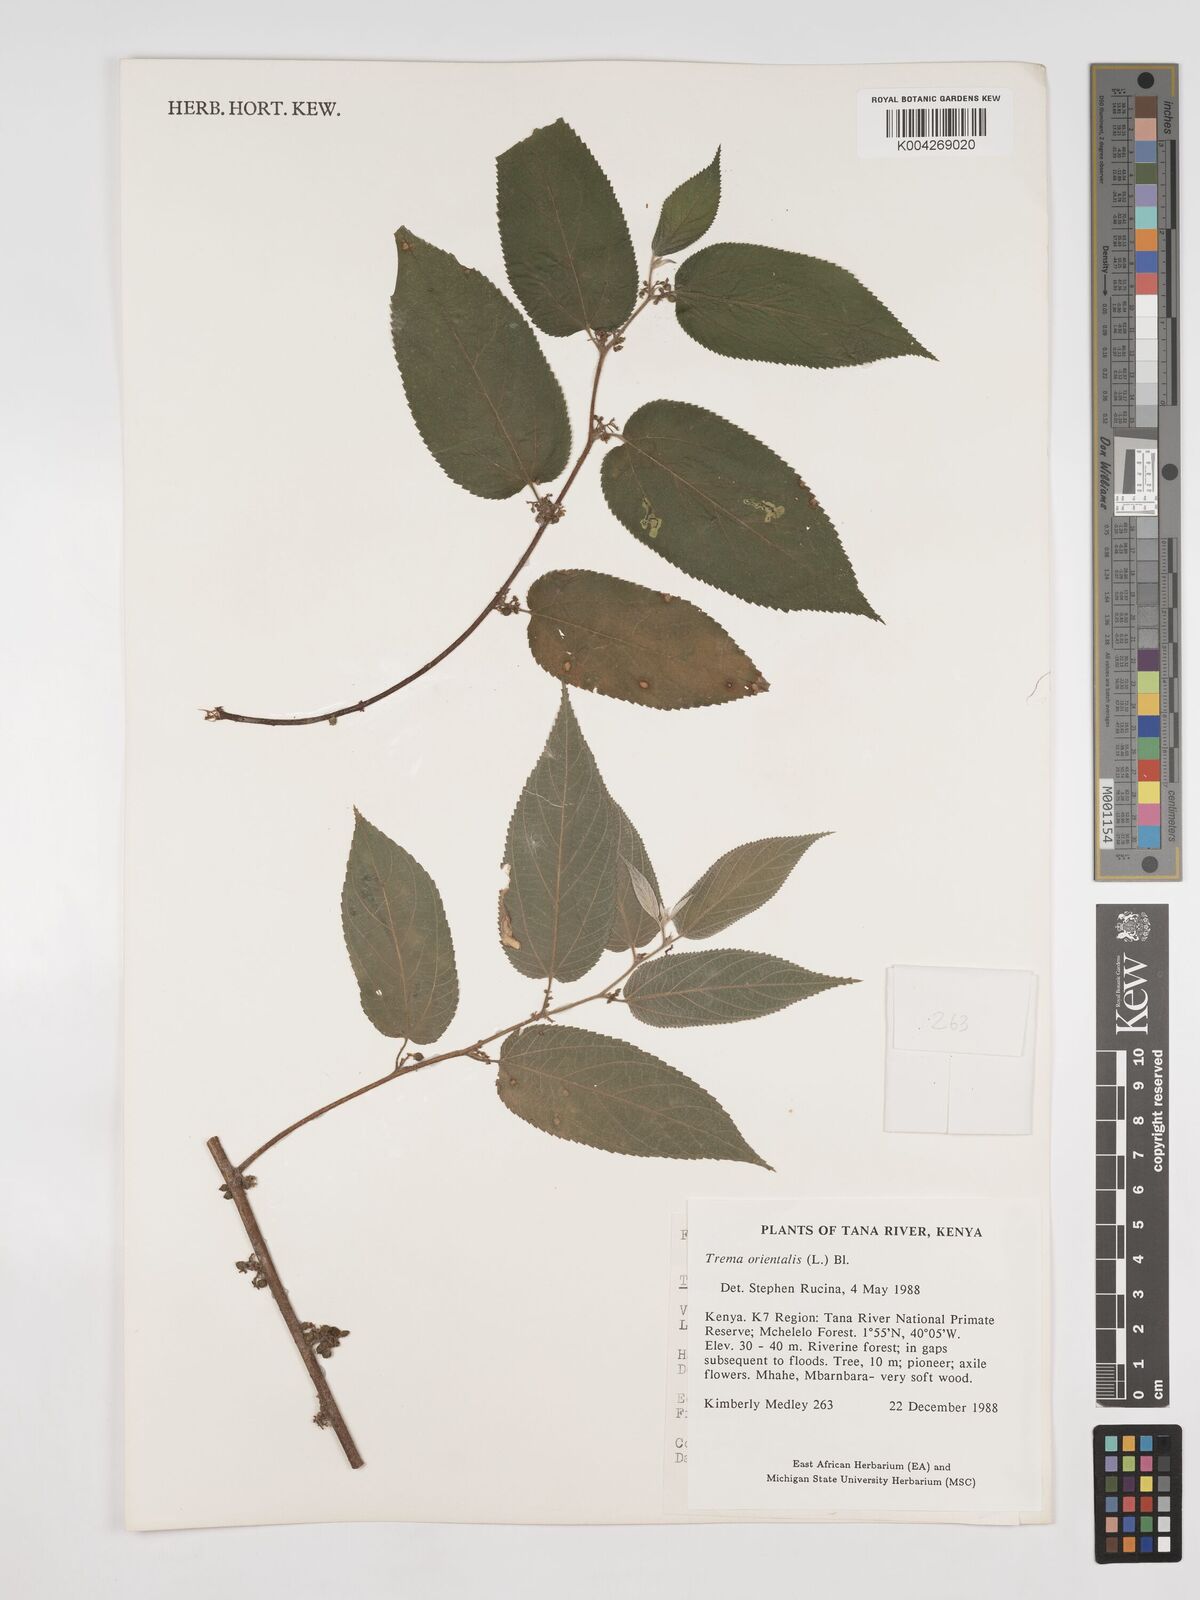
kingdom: Plantae
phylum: Tracheophyta
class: Magnoliopsida
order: Rosales
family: Cannabaceae
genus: Trema
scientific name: Trema orientale
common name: Indian charcoal tree
